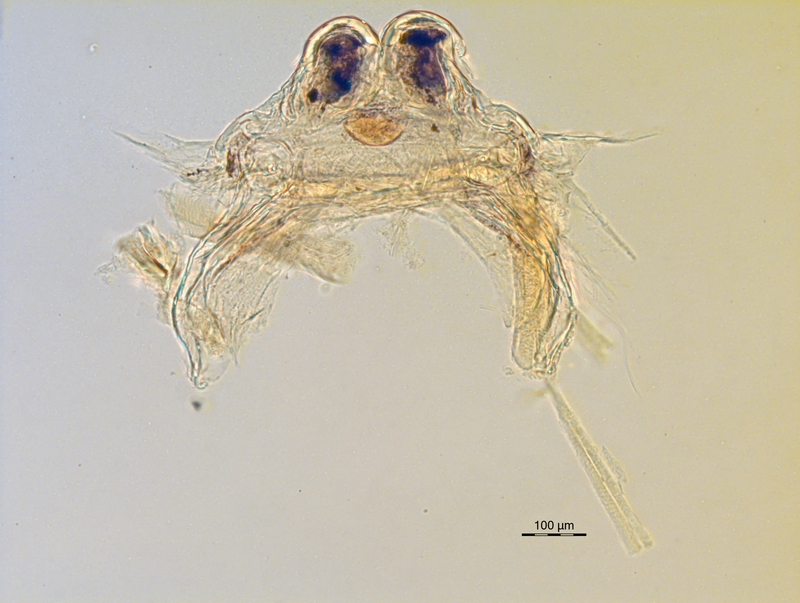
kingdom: Animalia
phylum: Arthropoda
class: Diplopoda
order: Chordeumatida
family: Craspedosomatidae
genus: Ochogona
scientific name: Ochogona euganeorum
